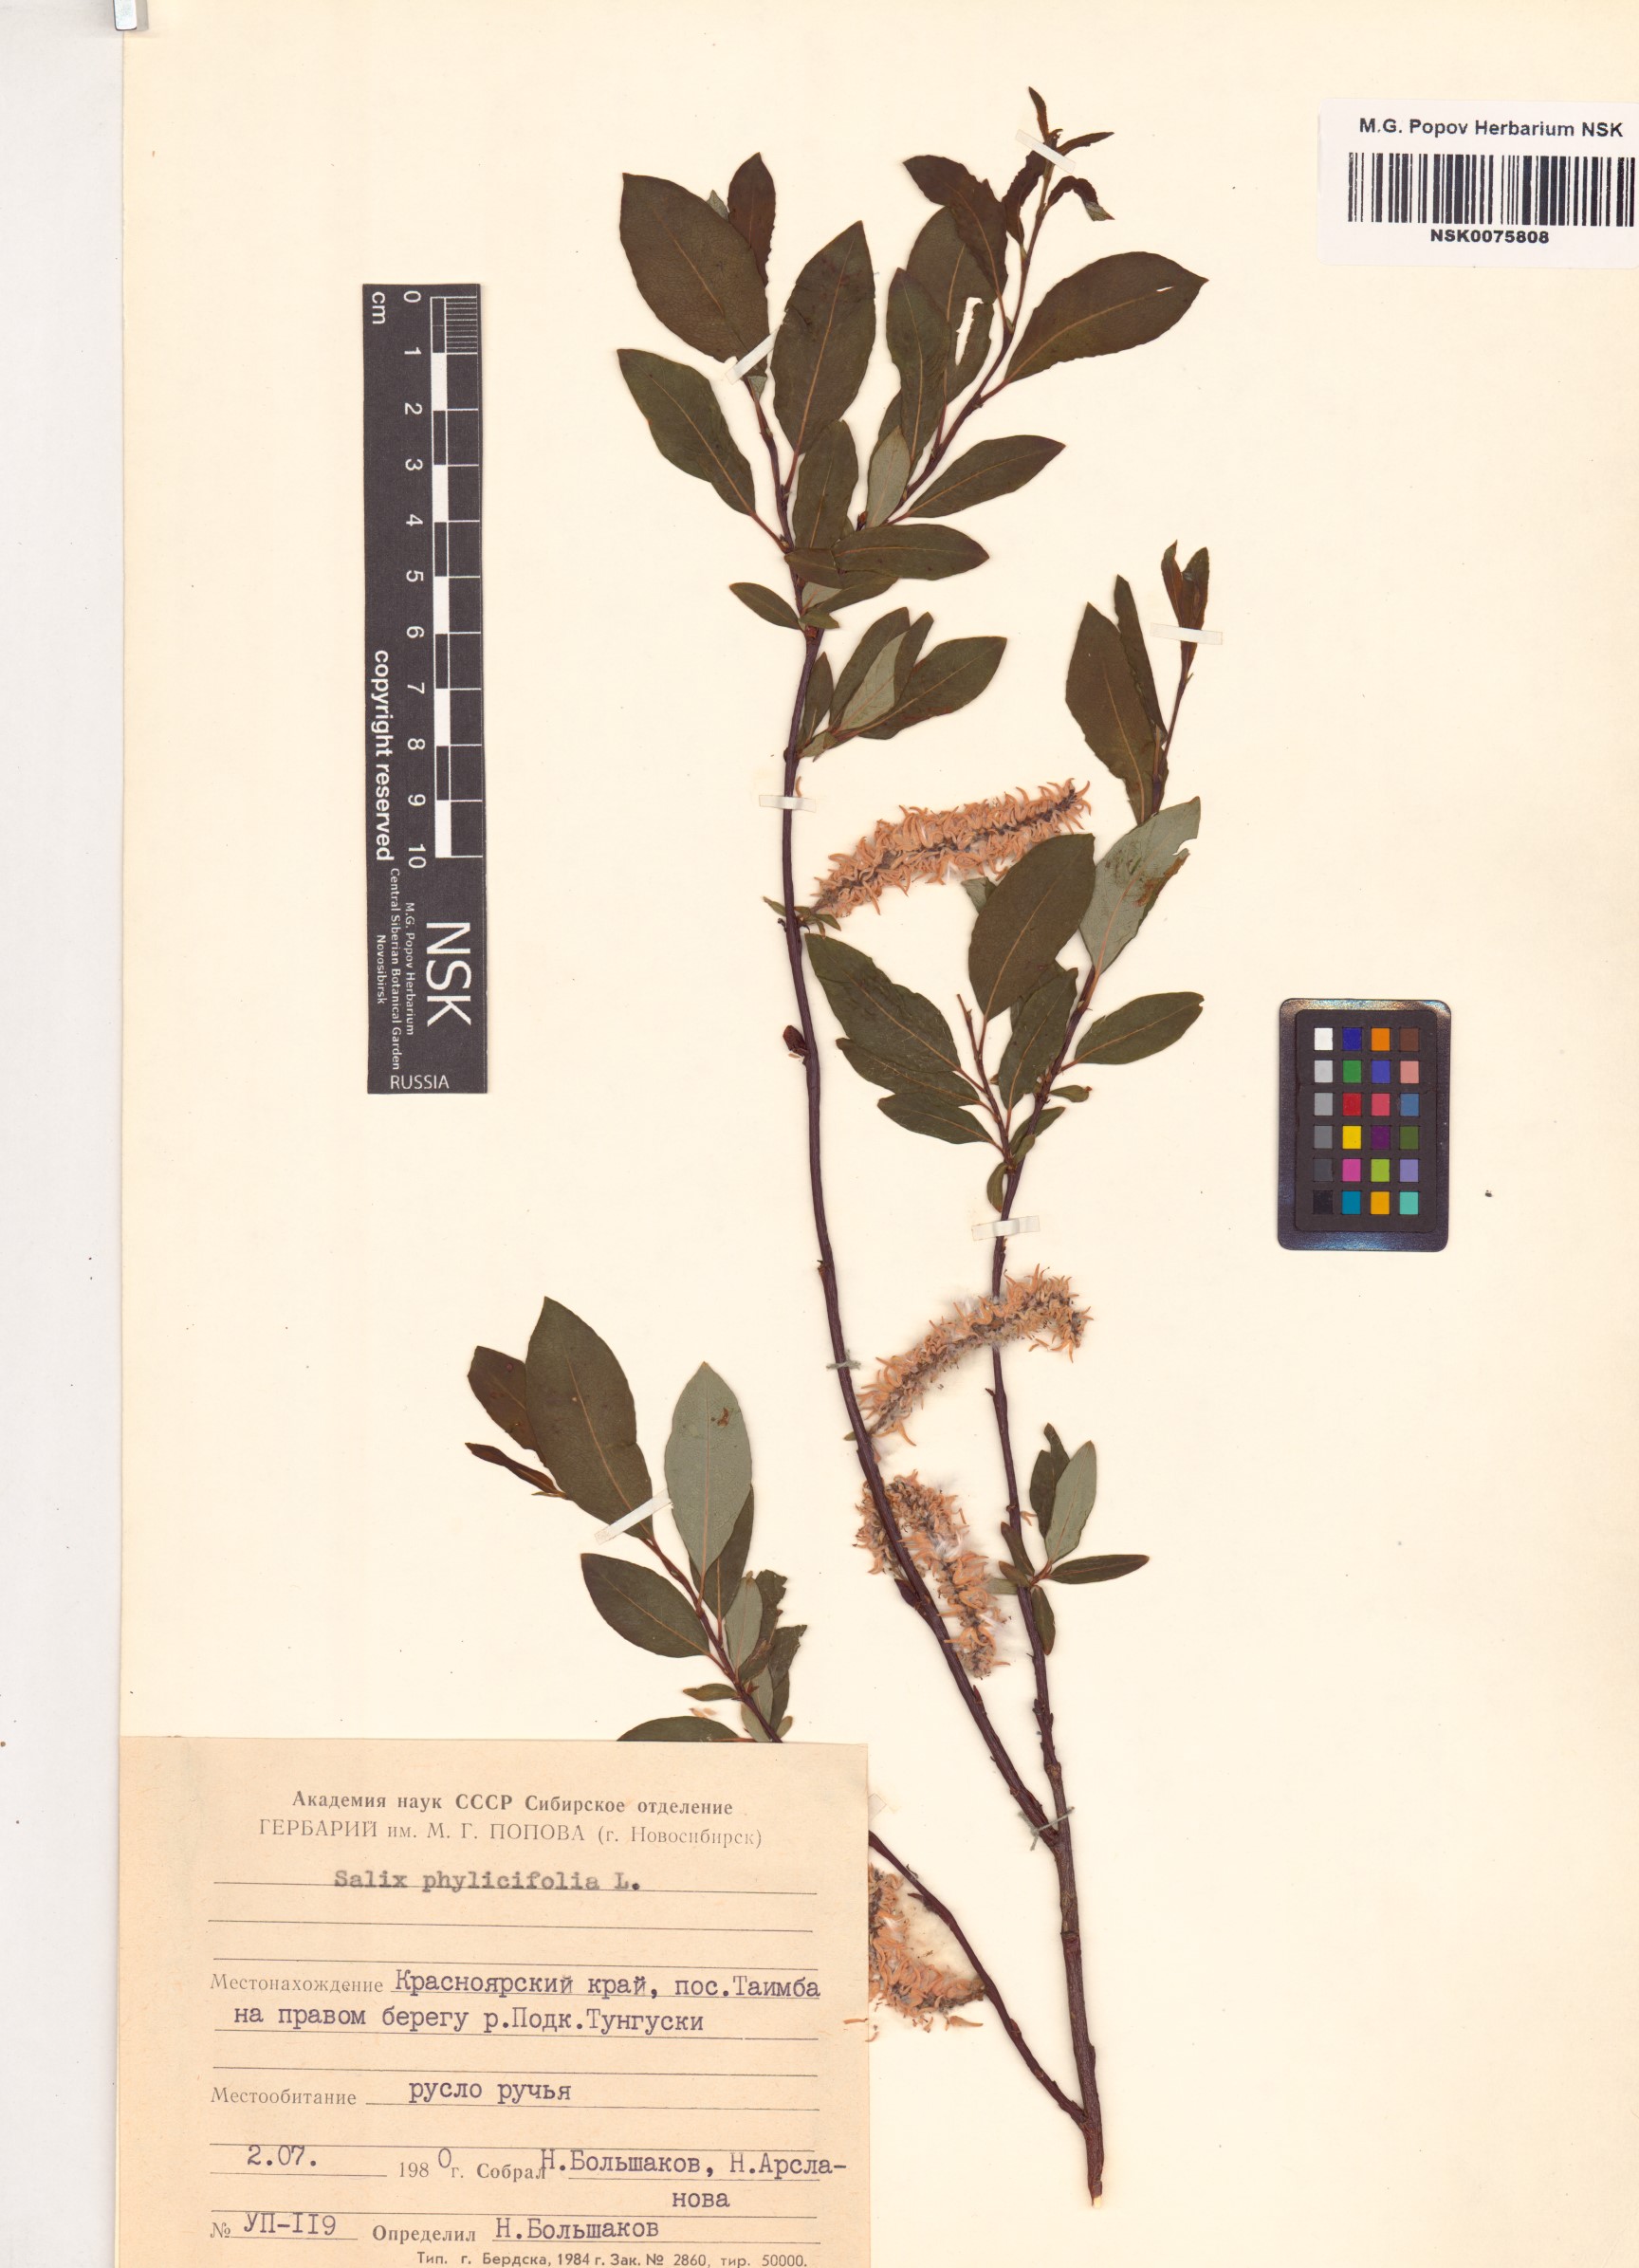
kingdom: Plantae
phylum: Tracheophyta
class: Magnoliopsida
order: Malpighiales
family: Salicaceae
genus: Salix
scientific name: Salix phylicifolia
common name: Tea-leaved willow
